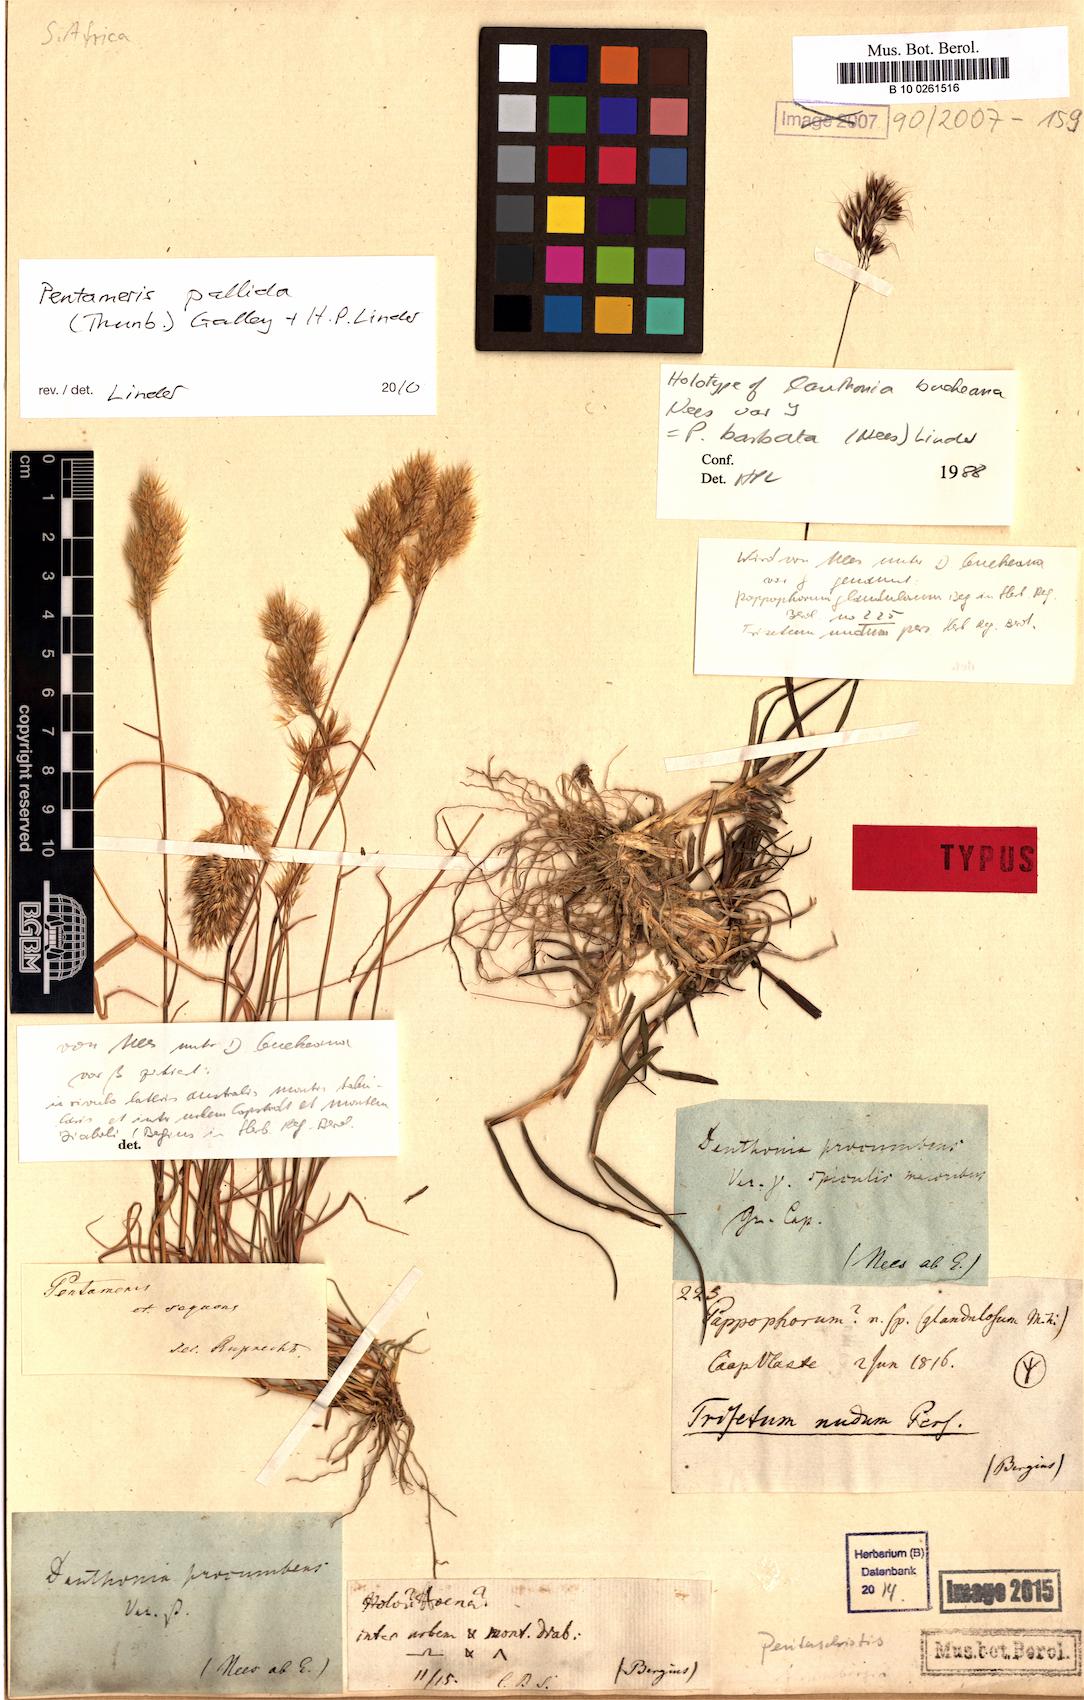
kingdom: Plantae
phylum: Tracheophyta
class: Liliopsida
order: Poales
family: Poaceae
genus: Pentameris
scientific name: Pentameris pallida
